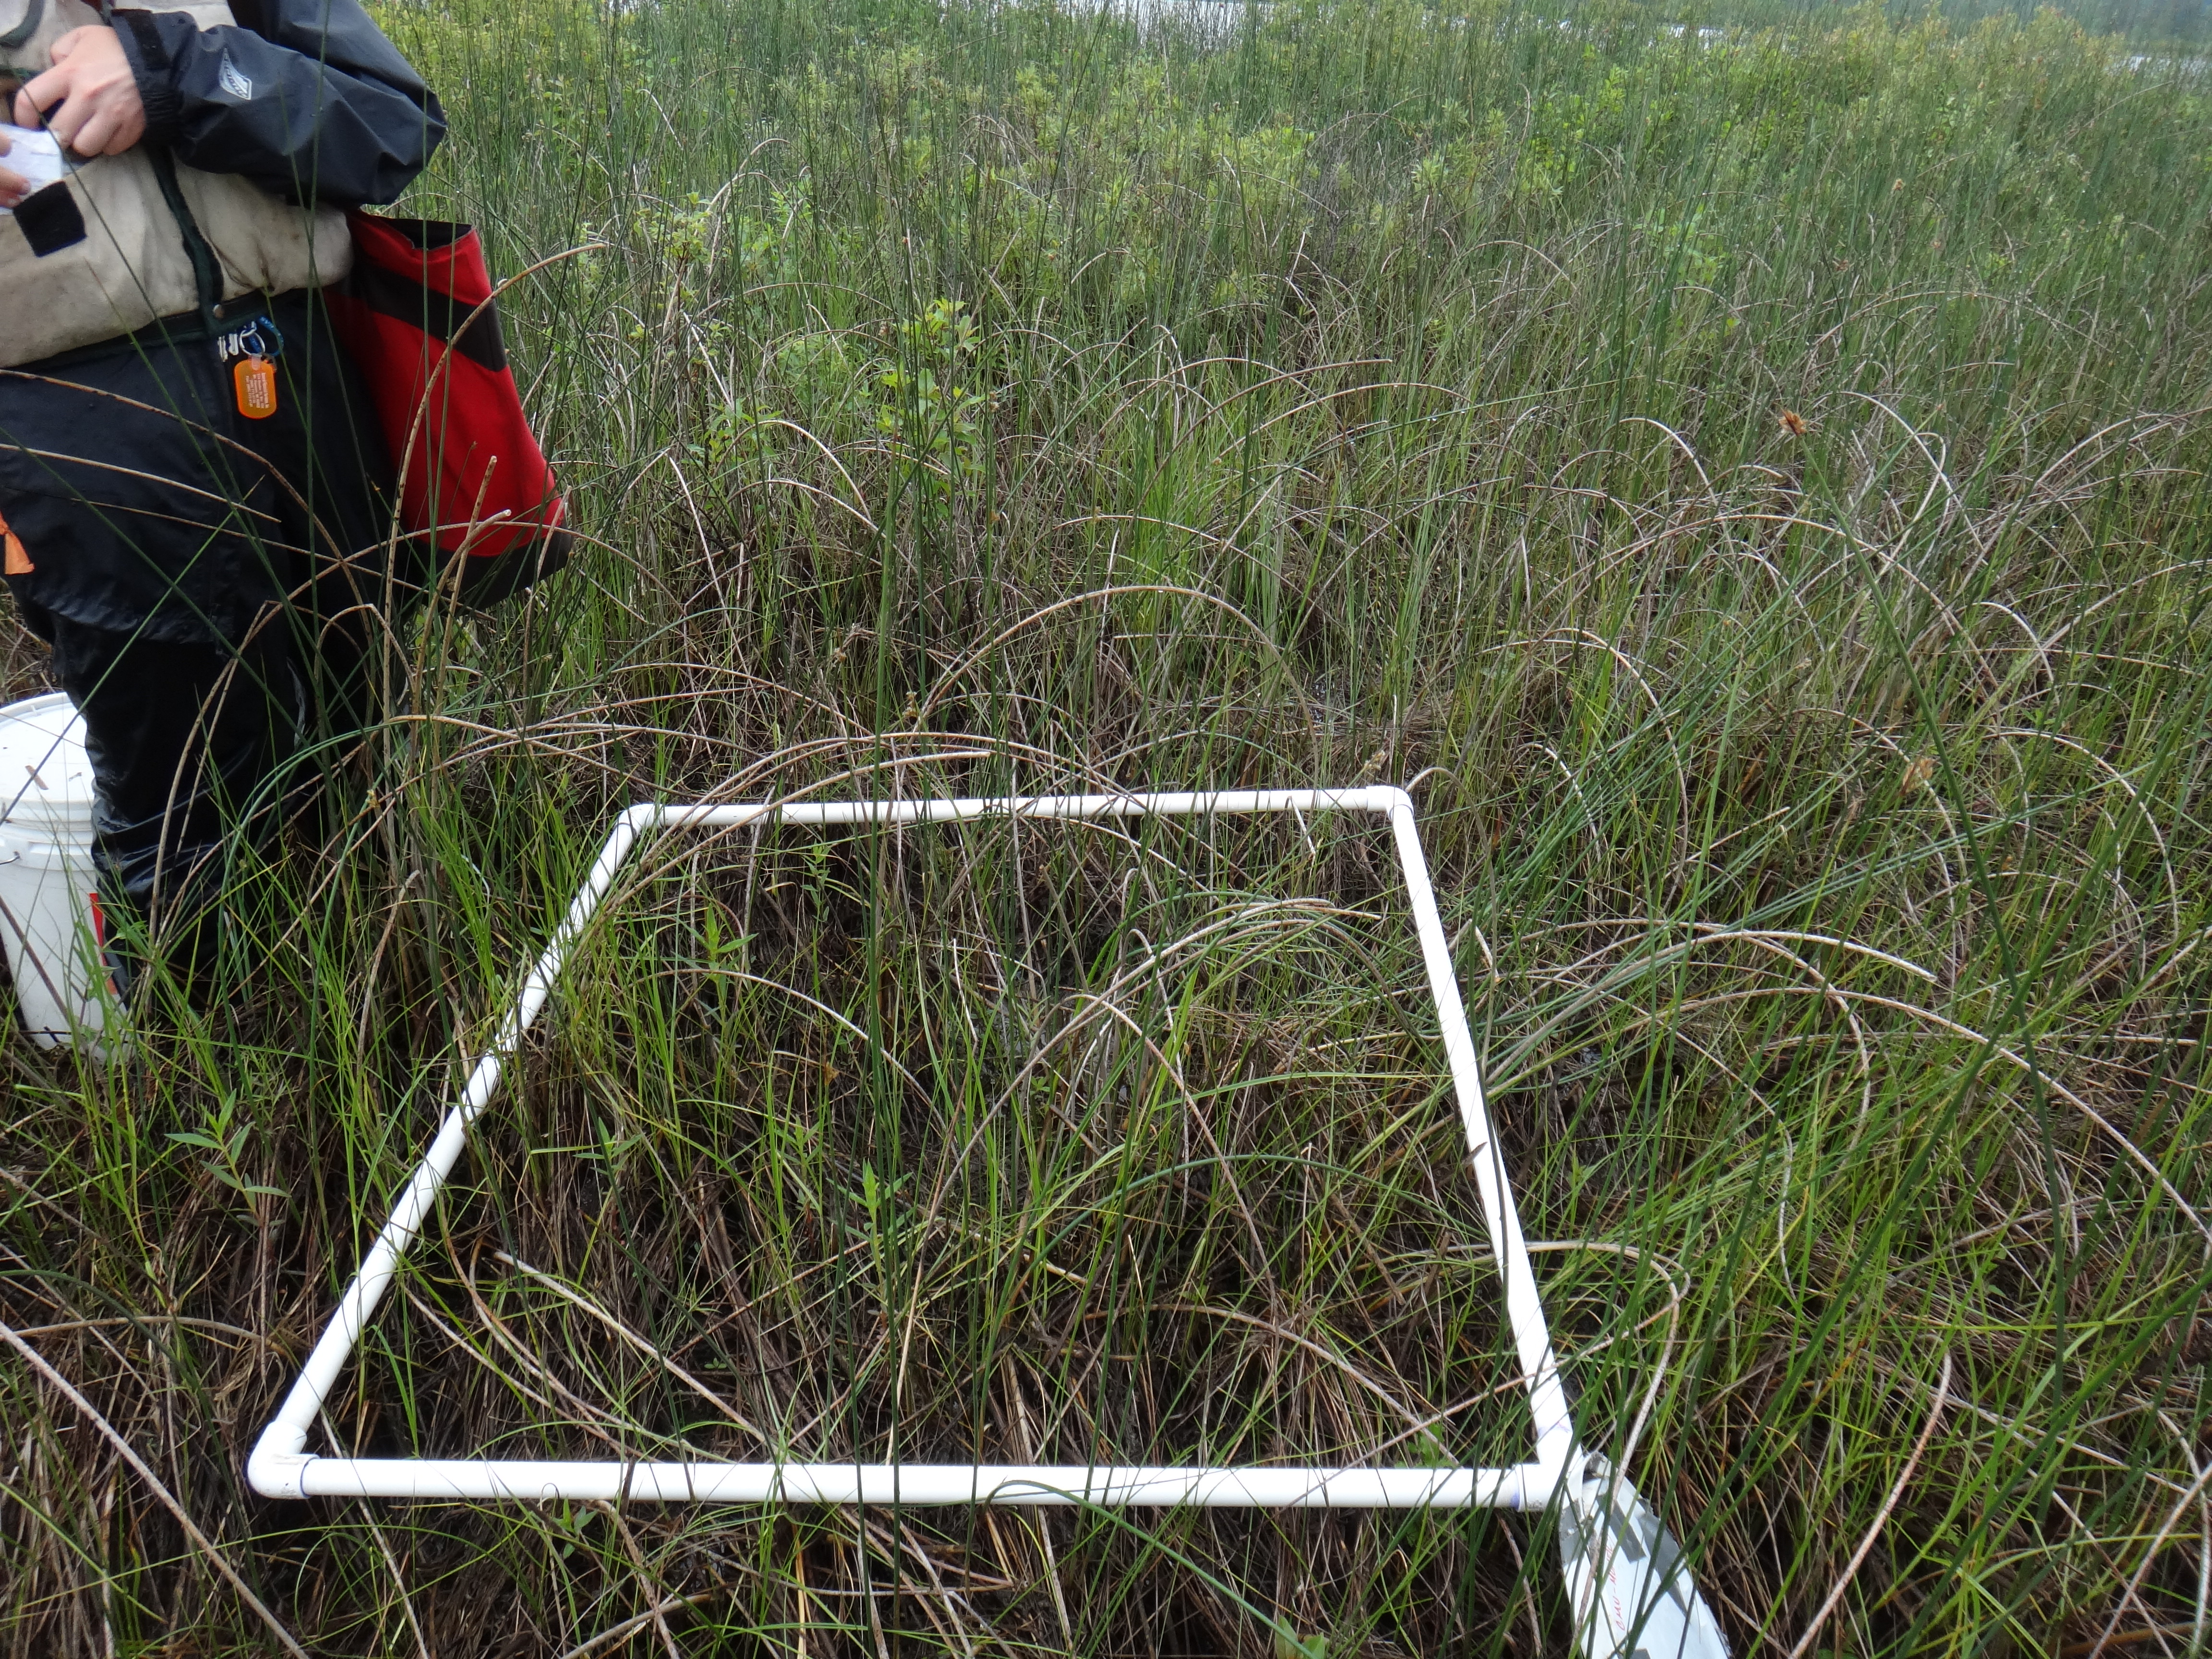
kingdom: Plantae
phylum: Tracheophyta
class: Liliopsida
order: Poales
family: Cyperaceae
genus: Scirpus
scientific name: Scirpus
